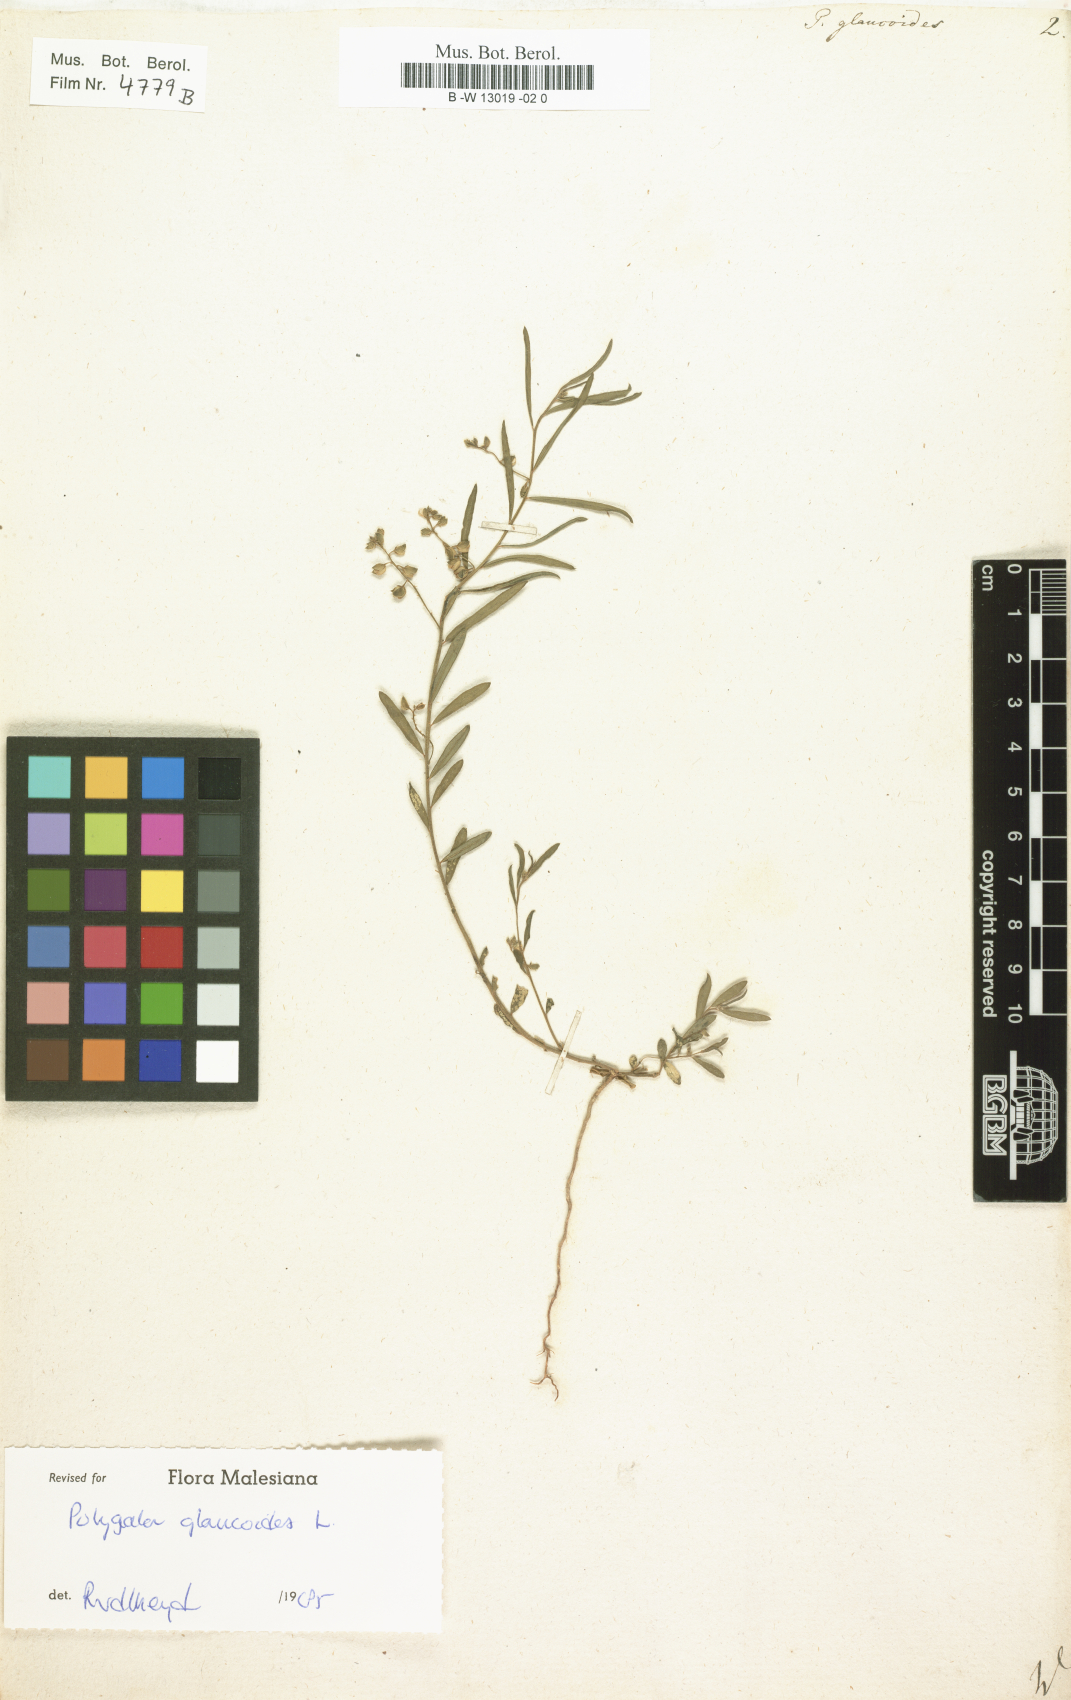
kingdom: Plantae
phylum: Tracheophyta
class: Magnoliopsida
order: Fabales
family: Polygalaceae
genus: Polygala
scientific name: Polygala glaucoides
